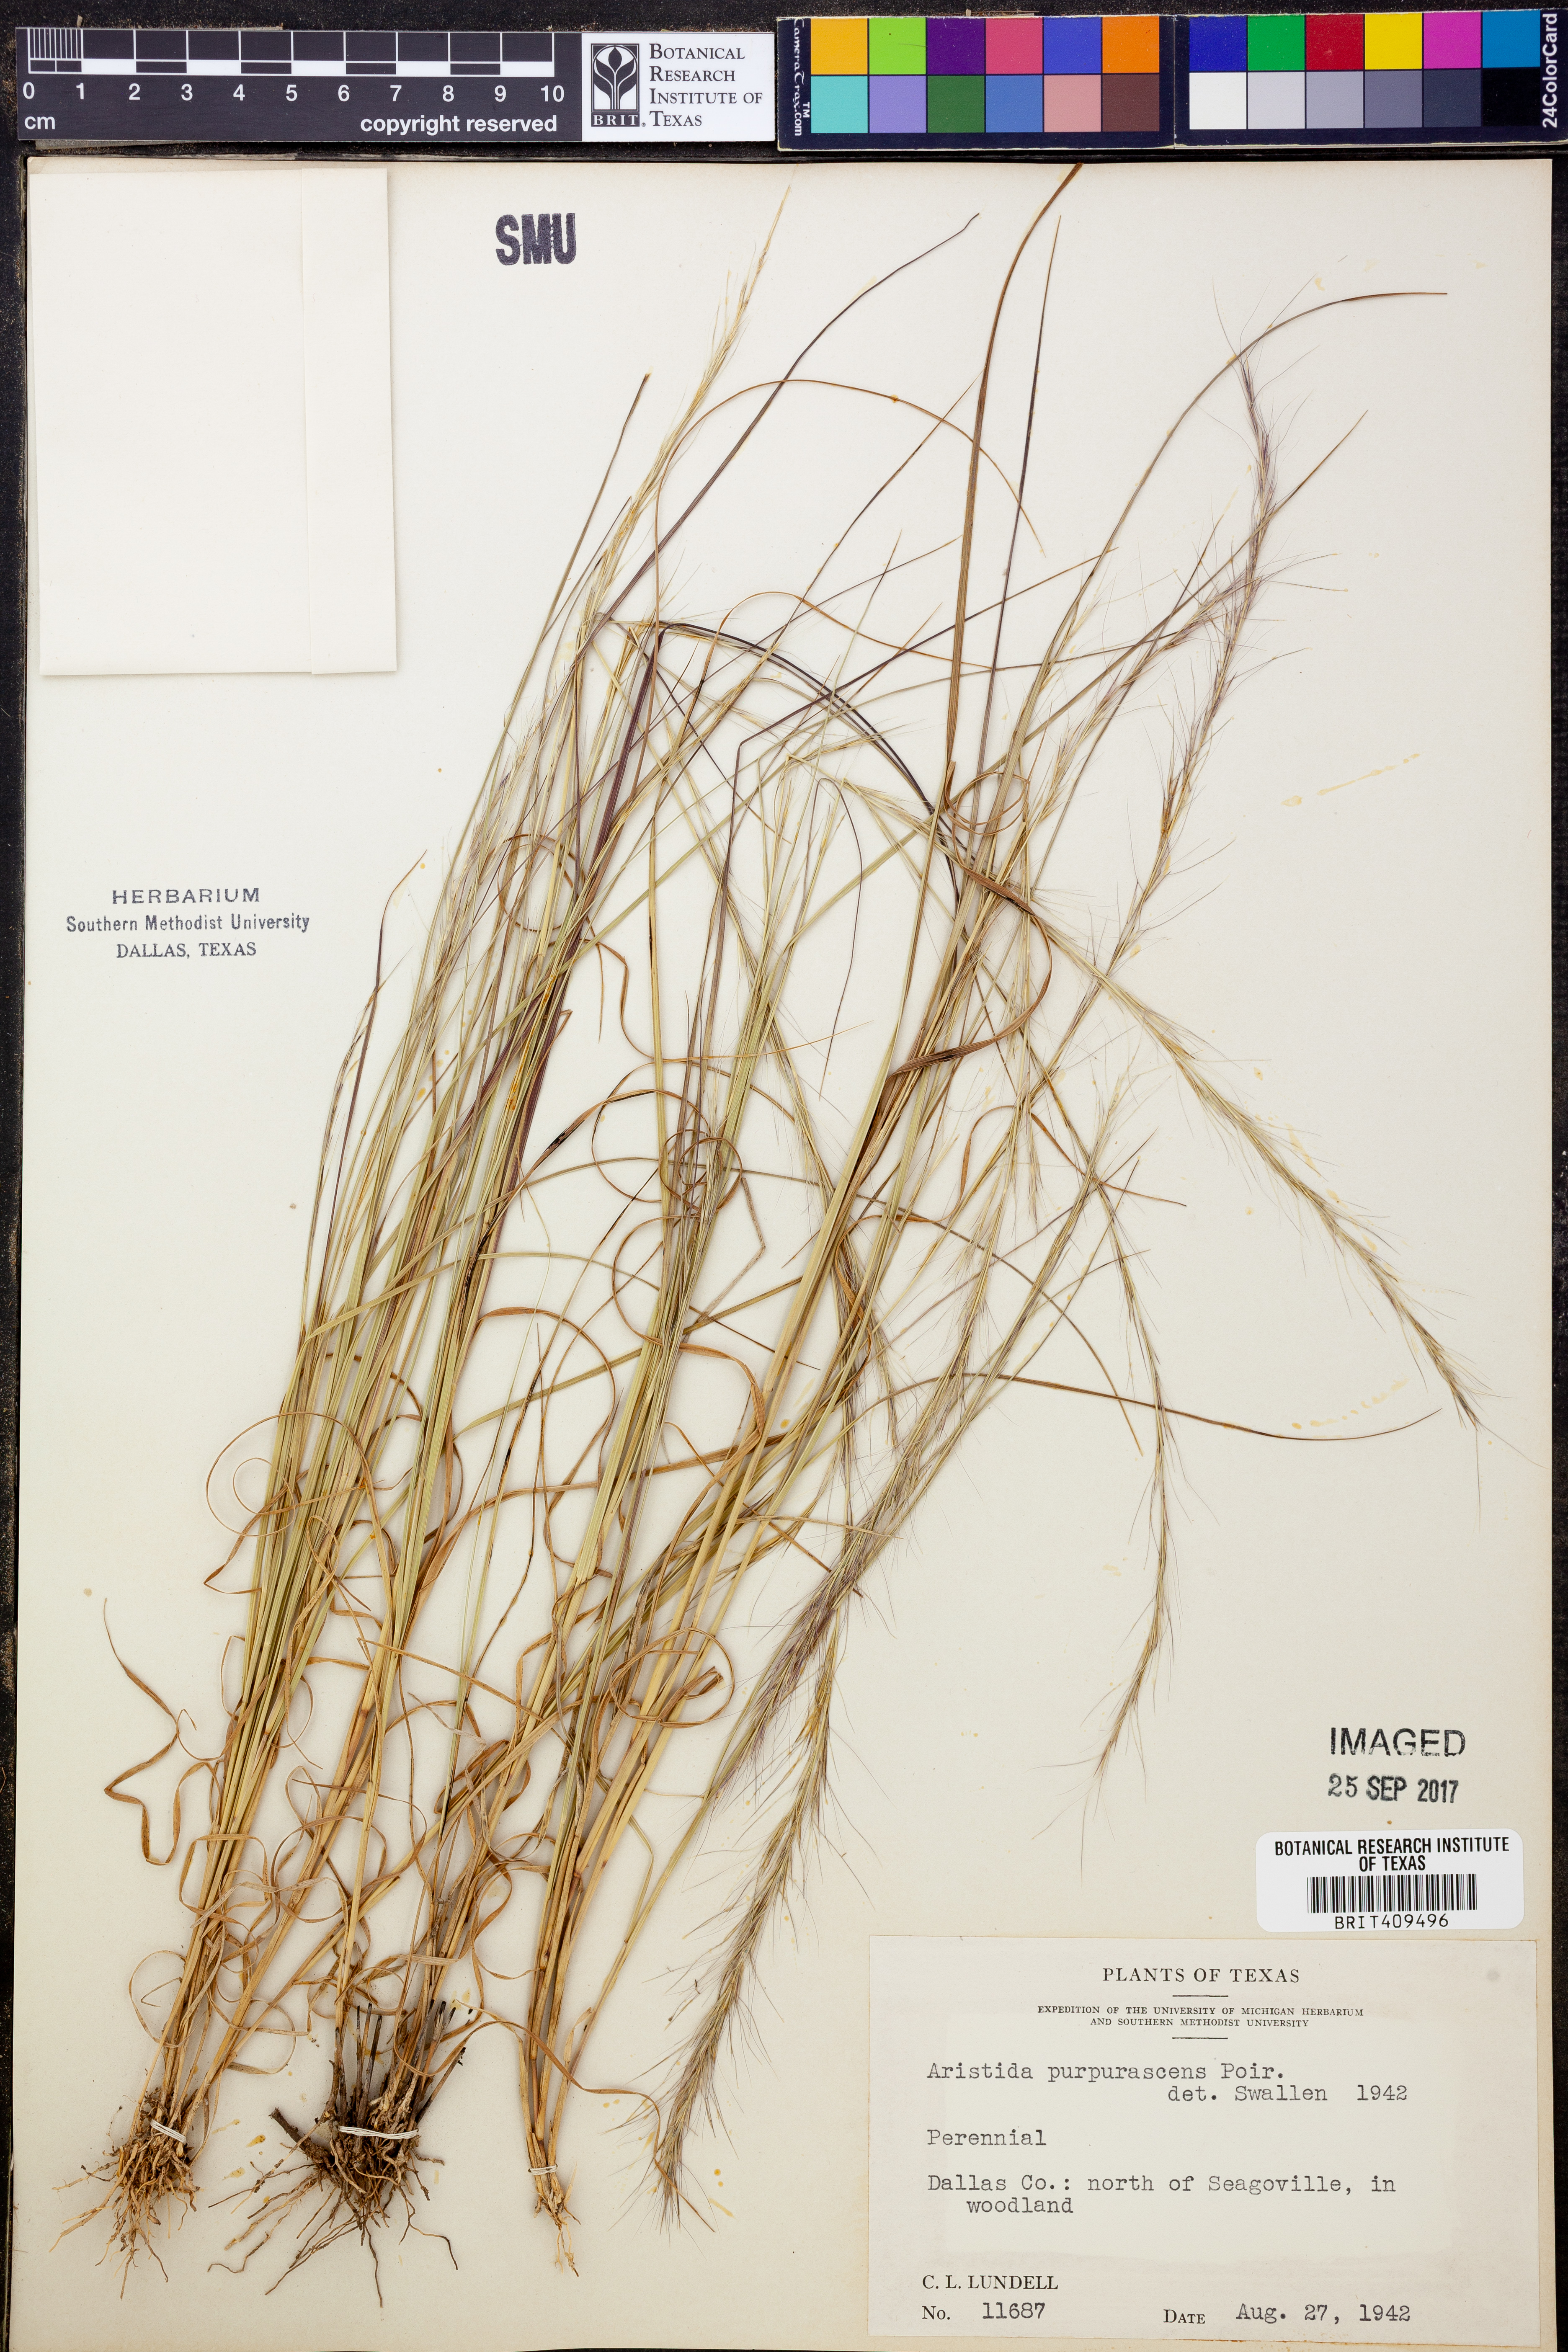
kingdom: Plantae
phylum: Tracheophyta
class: Liliopsida
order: Poales
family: Poaceae
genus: Aristida
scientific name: Aristida purpurascens
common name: Arrow-feather
